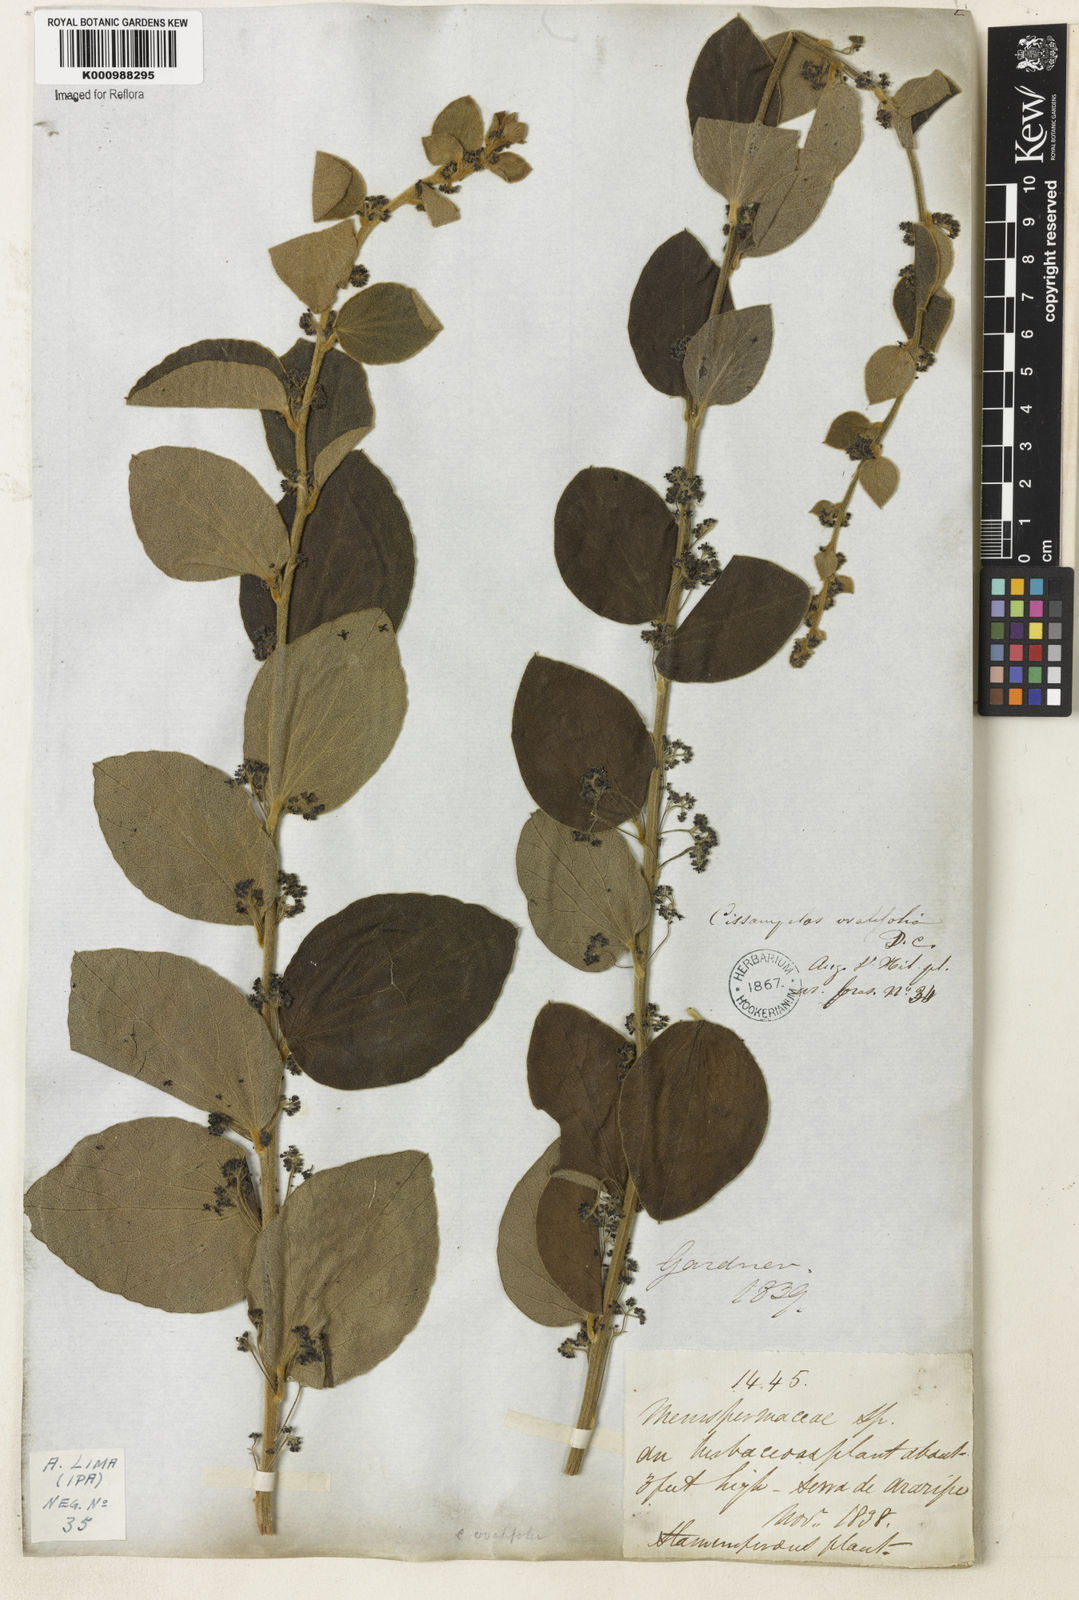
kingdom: Plantae
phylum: Tracheophyta
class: Magnoliopsida
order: Ranunculales
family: Menispermaceae
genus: Cissampelos
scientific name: Cissampelos ovalifolia
